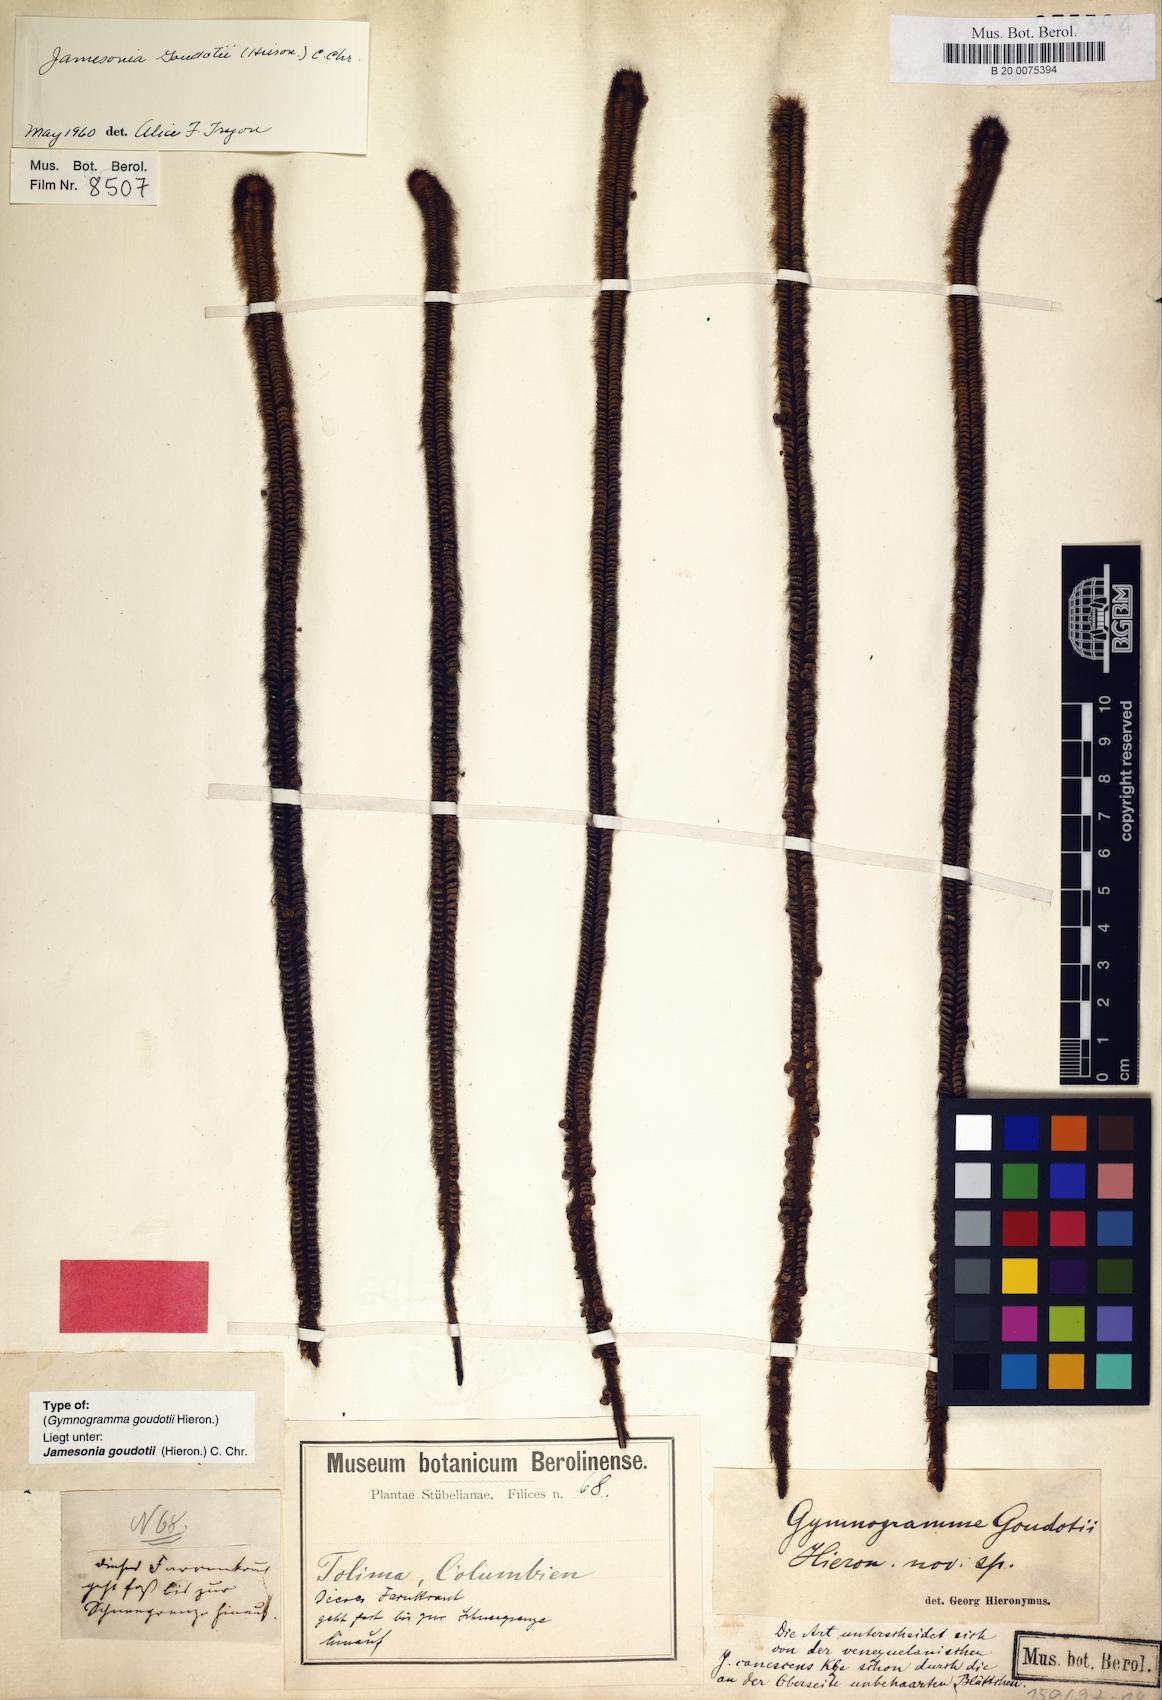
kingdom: Plantae
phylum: Tracheophyta
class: Polypodiopsida
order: Polypodiales
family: Pteridaceae
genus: Jamesonia
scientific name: Jamesonia goudotii
